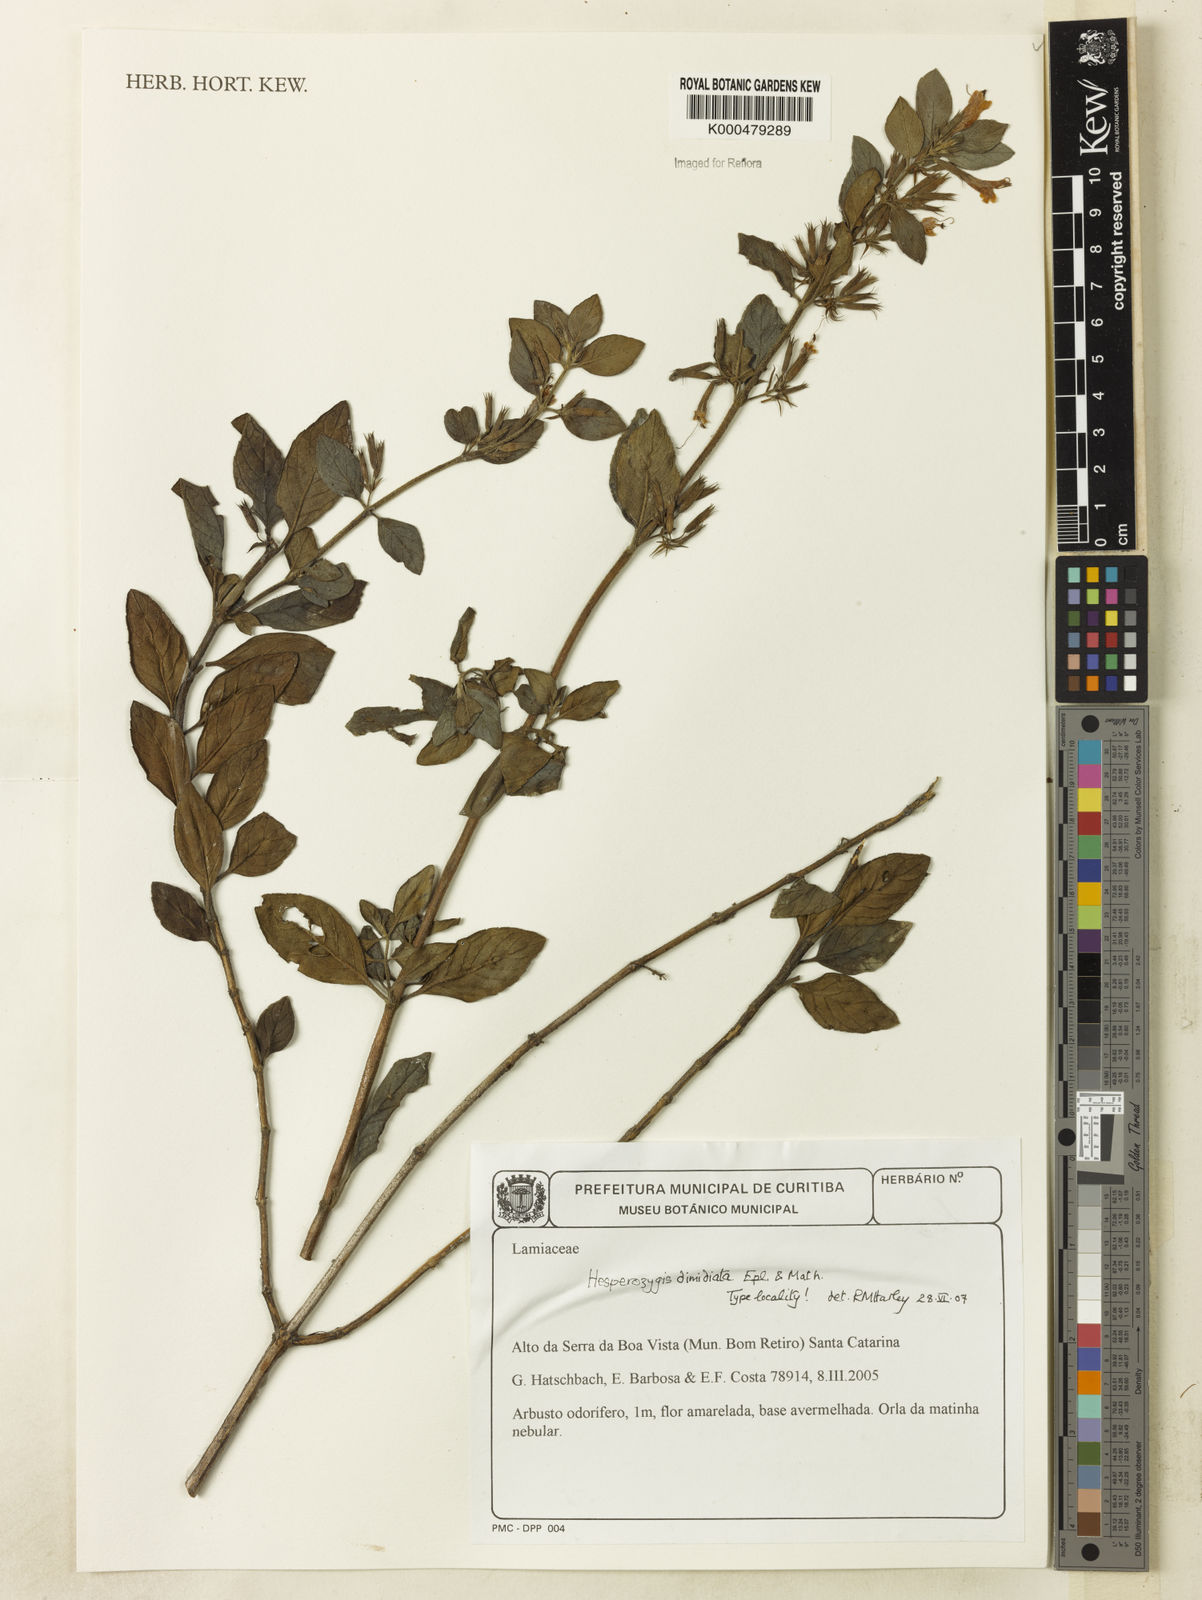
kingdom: Plantae
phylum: Tracheophyta
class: Magnoliopsida
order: Lamiales
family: Lamiaceae
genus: Hesperozygis
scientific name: Hesperozygis dimidiata
